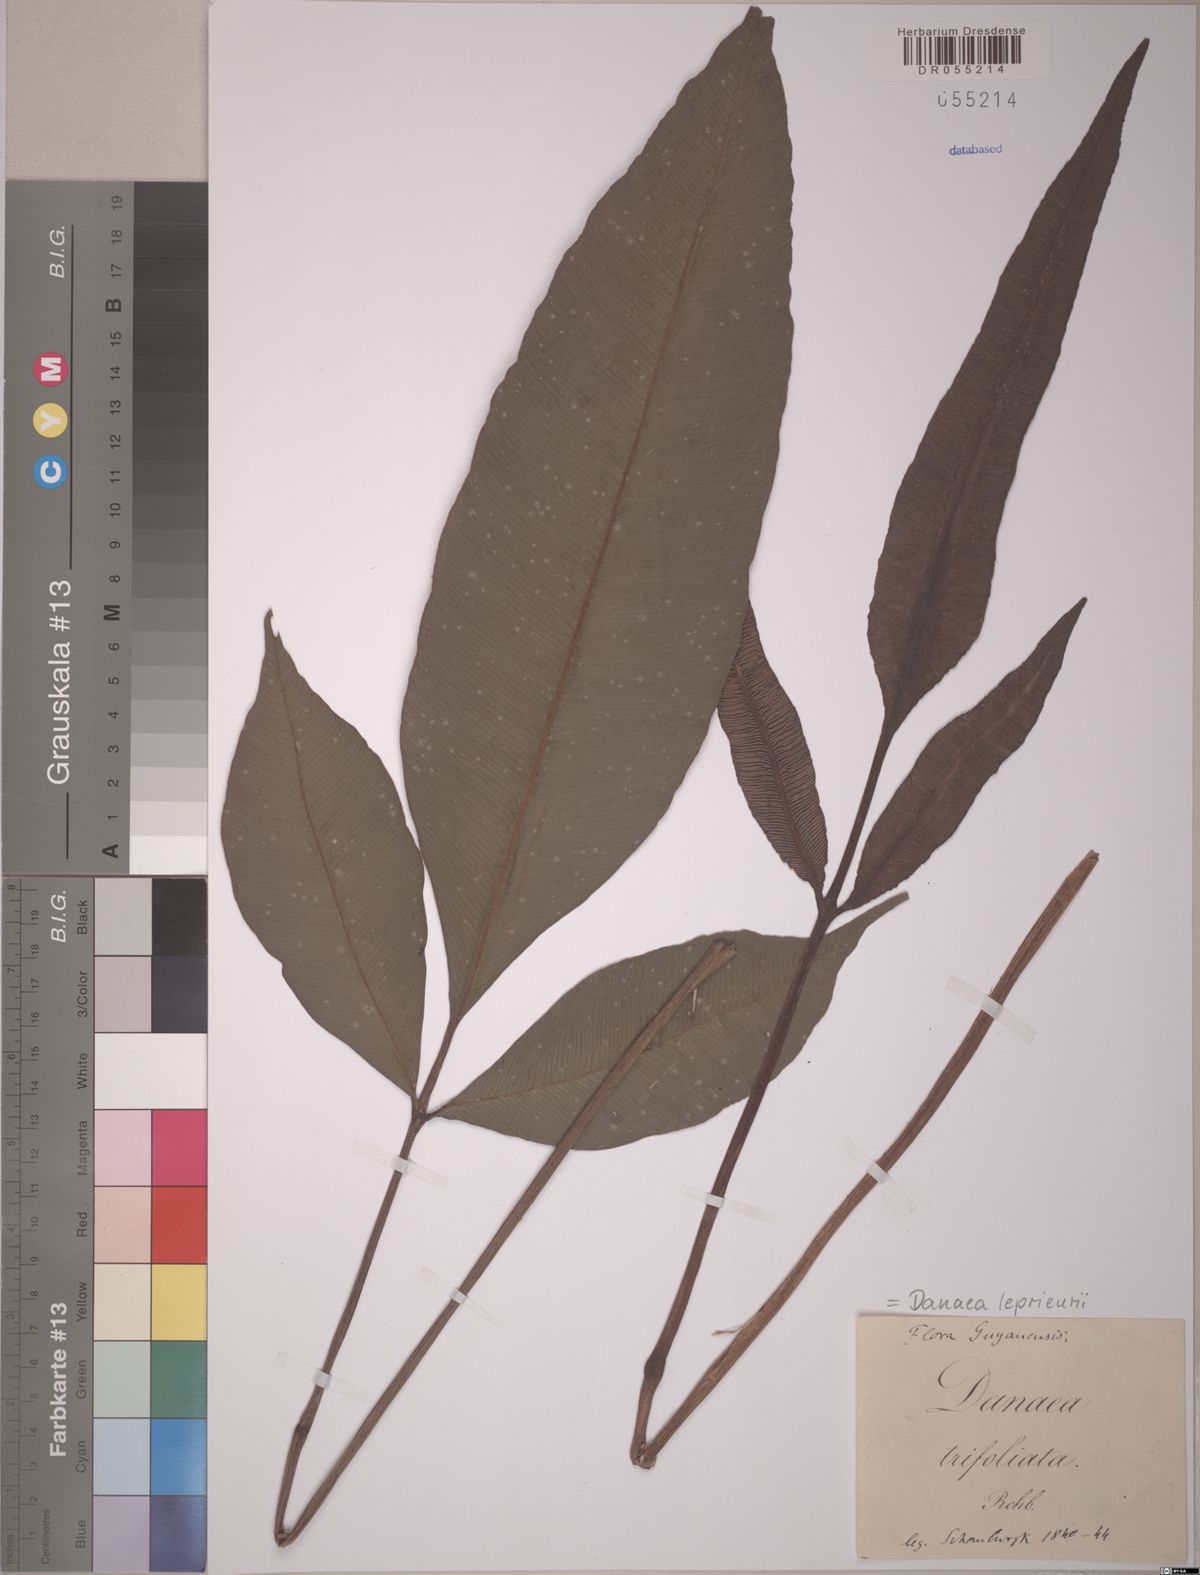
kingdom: Plantae
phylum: Tracheophyta
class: Polypodiopsida
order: Marattiales
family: Marattiaceae
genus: Danaea
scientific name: Danaea leprieurii
